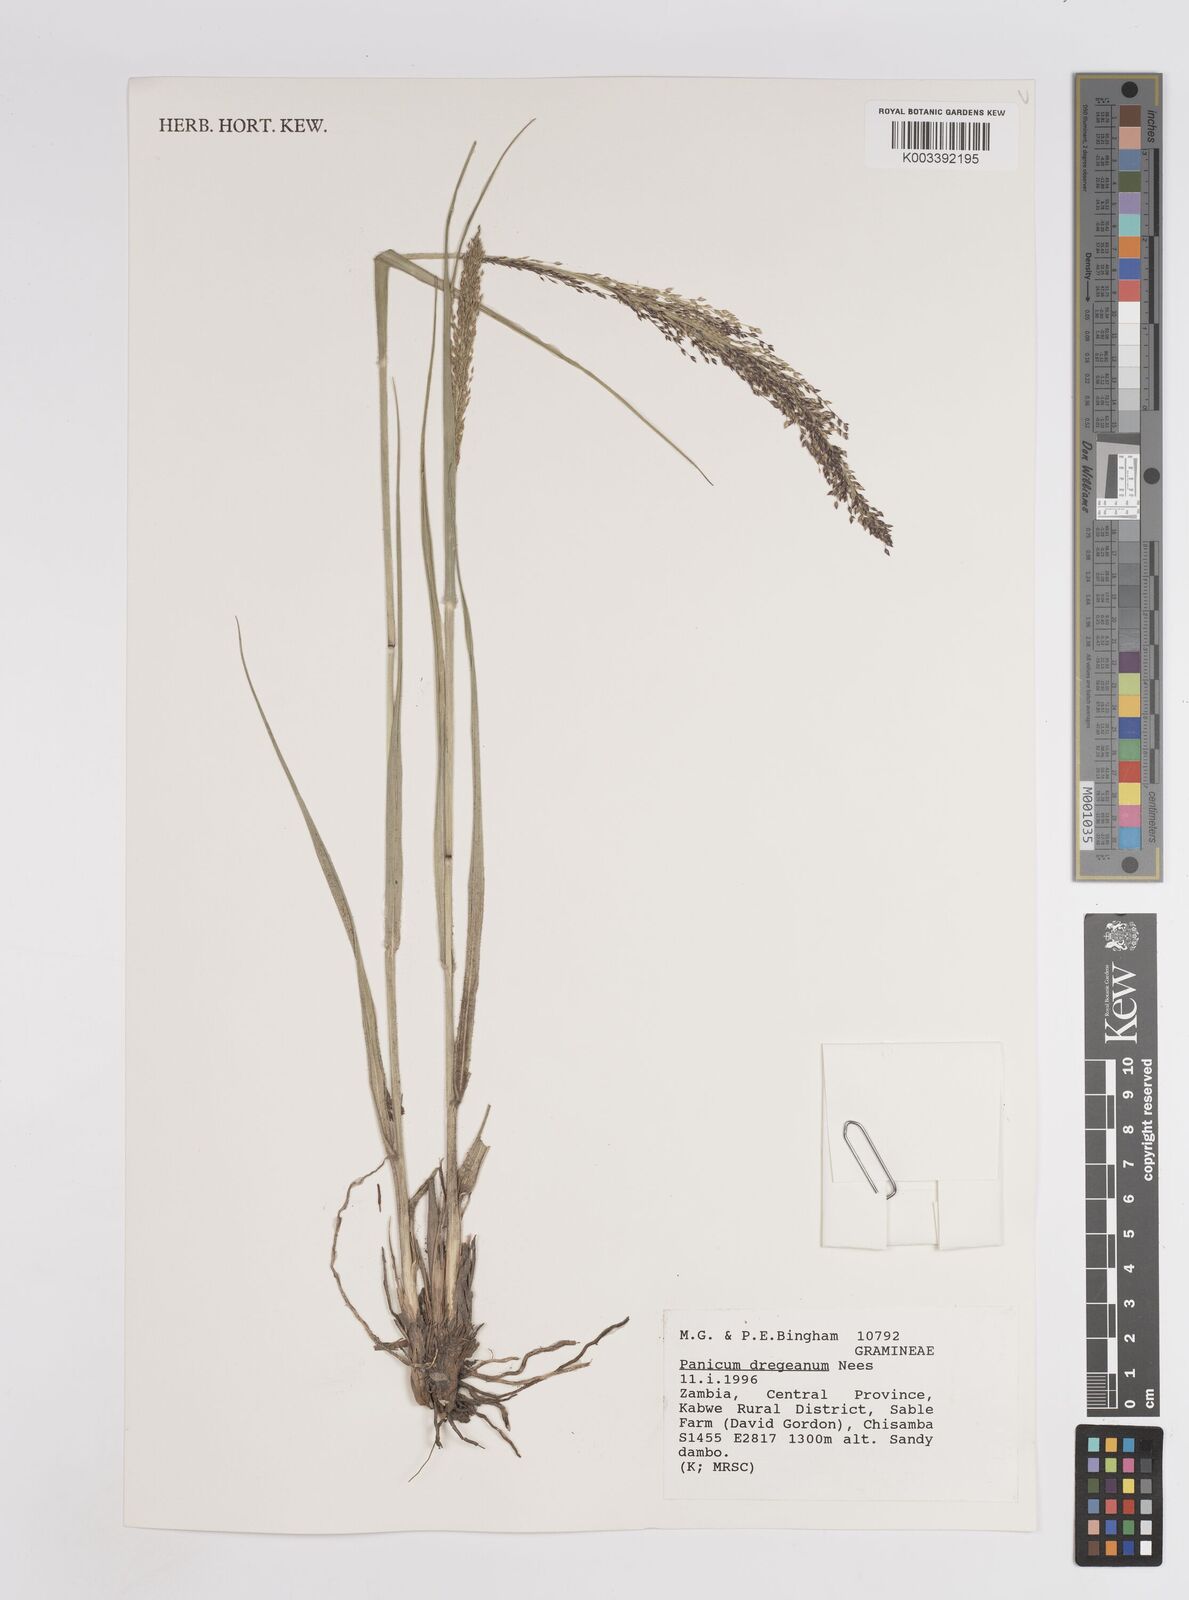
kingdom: Plantae
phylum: Tracheophyta
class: Liliopsida
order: Poales
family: Poaceae
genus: Panicum
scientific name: Panicum dregeanum
